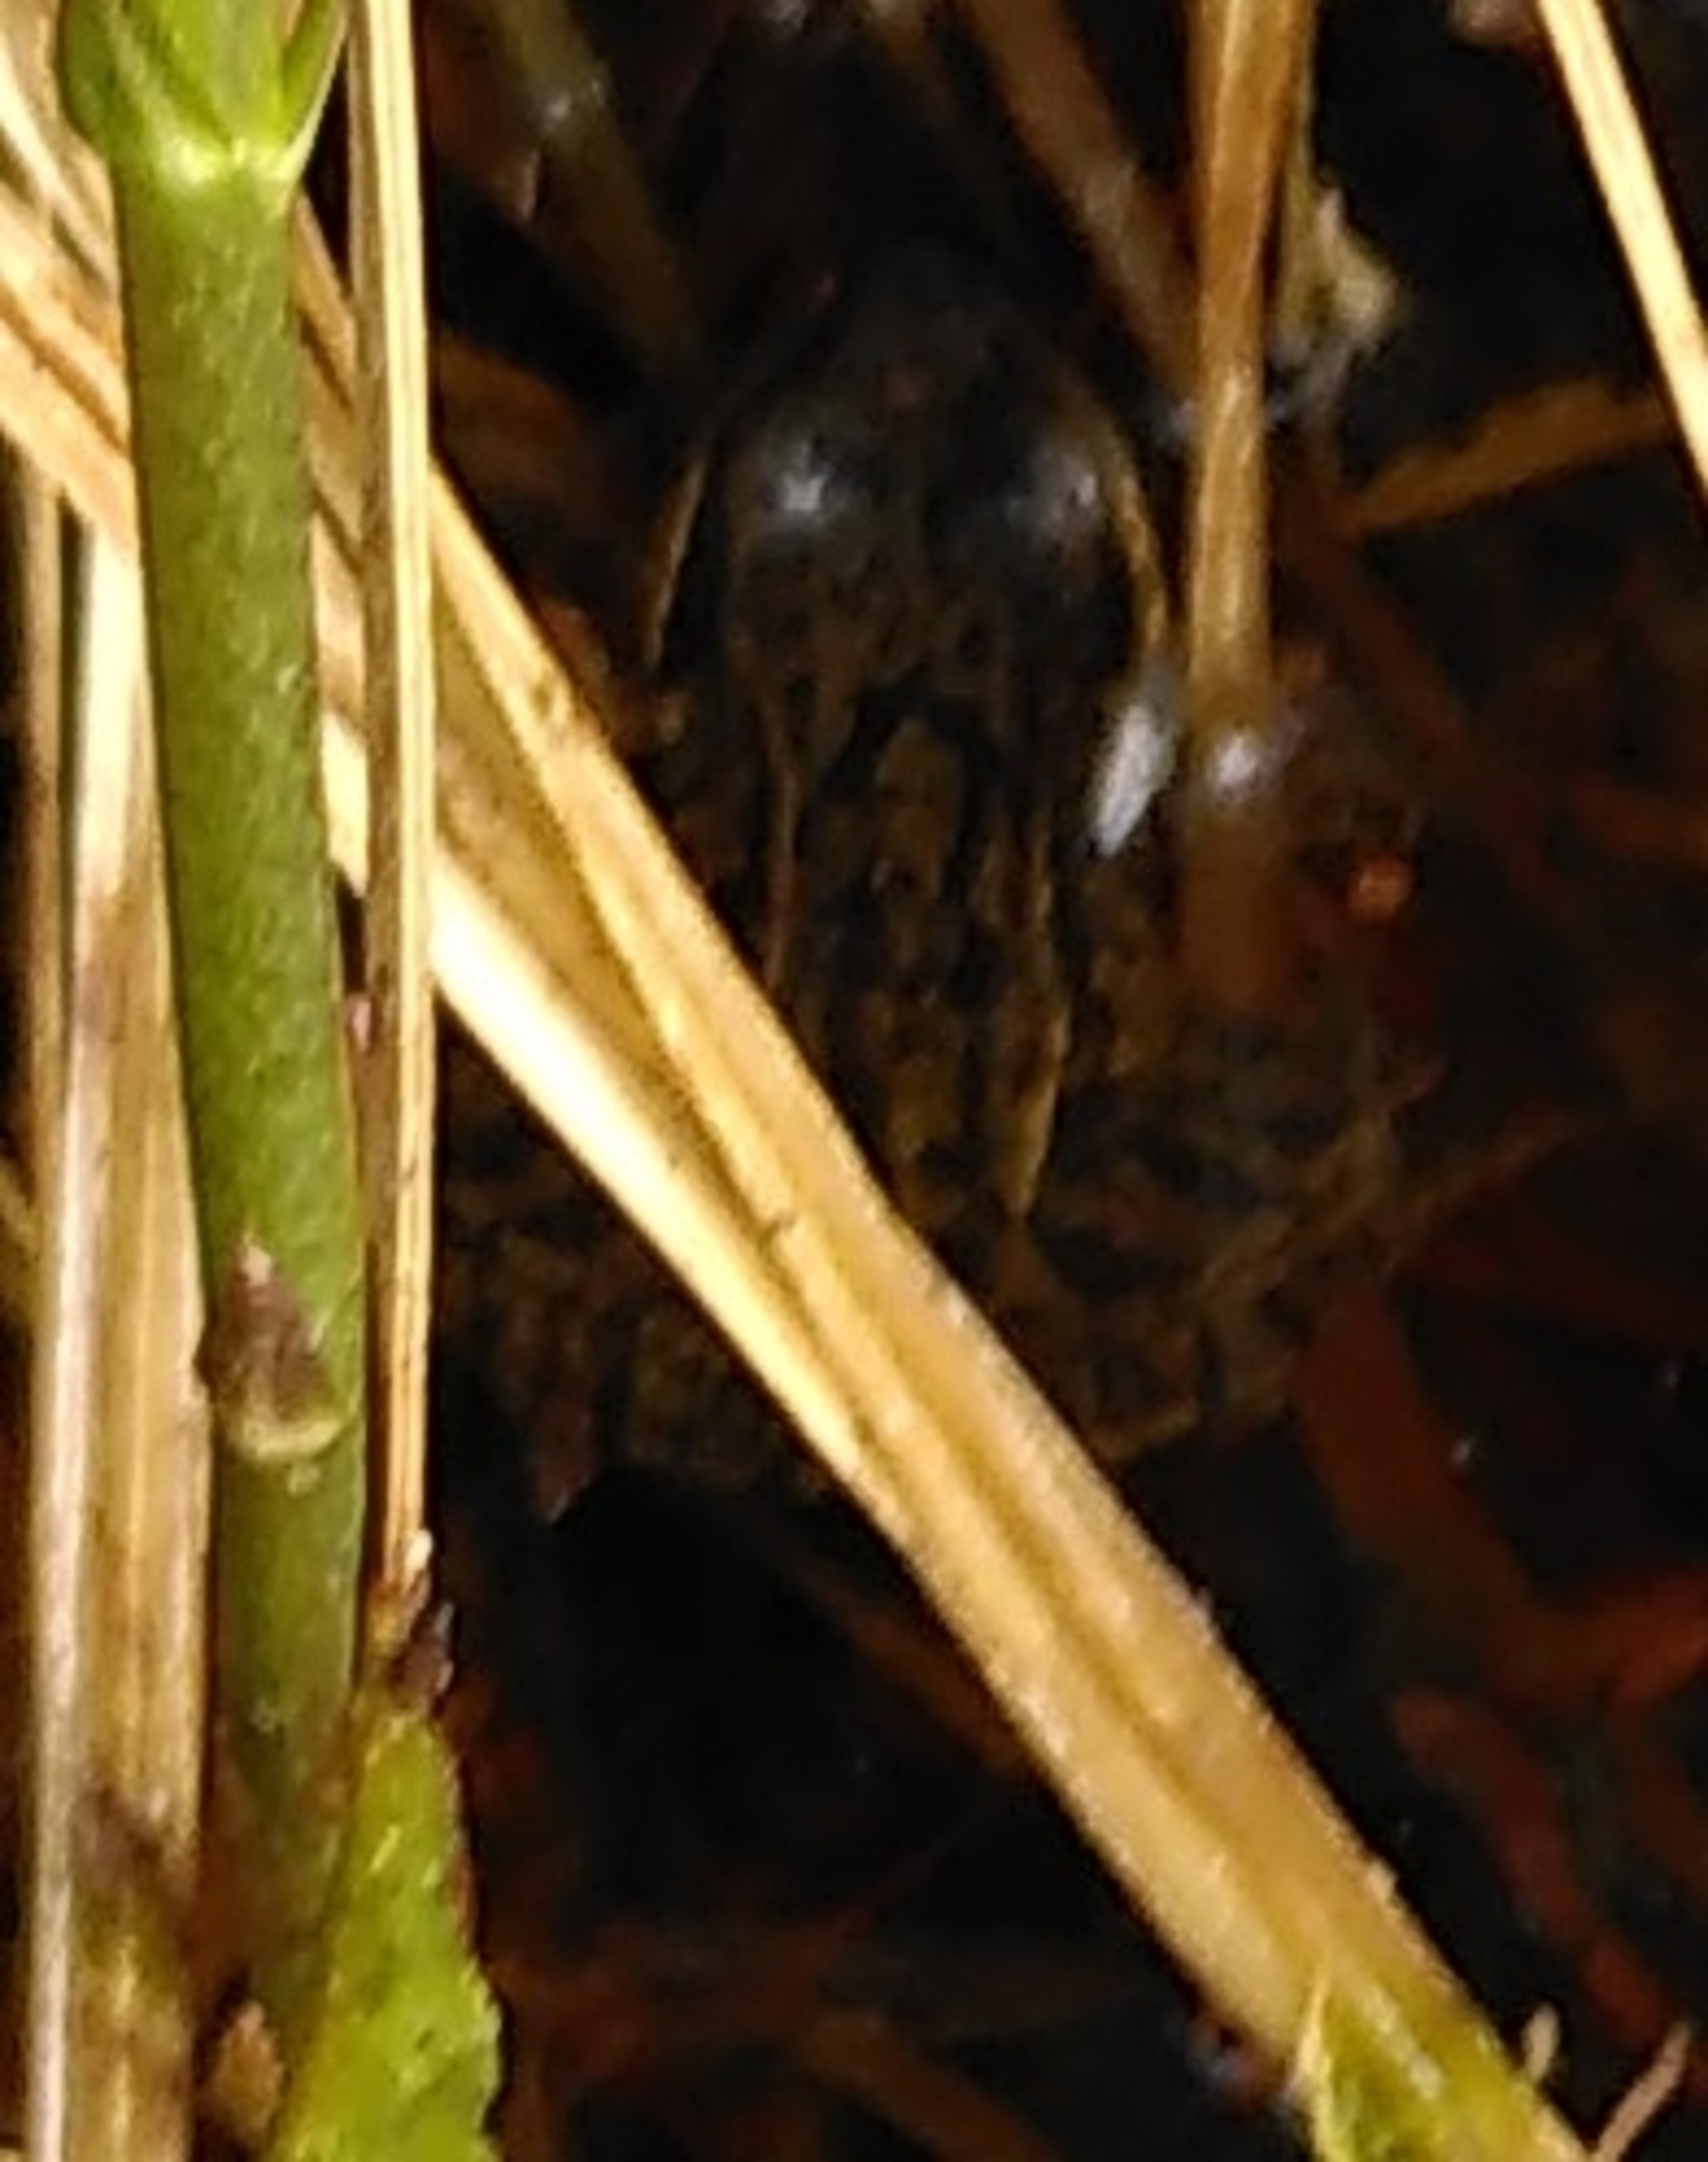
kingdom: Animalia
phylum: Chordata
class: Amphibia
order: Anura
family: Ranidae
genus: Rana
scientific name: Rana
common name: Rana
